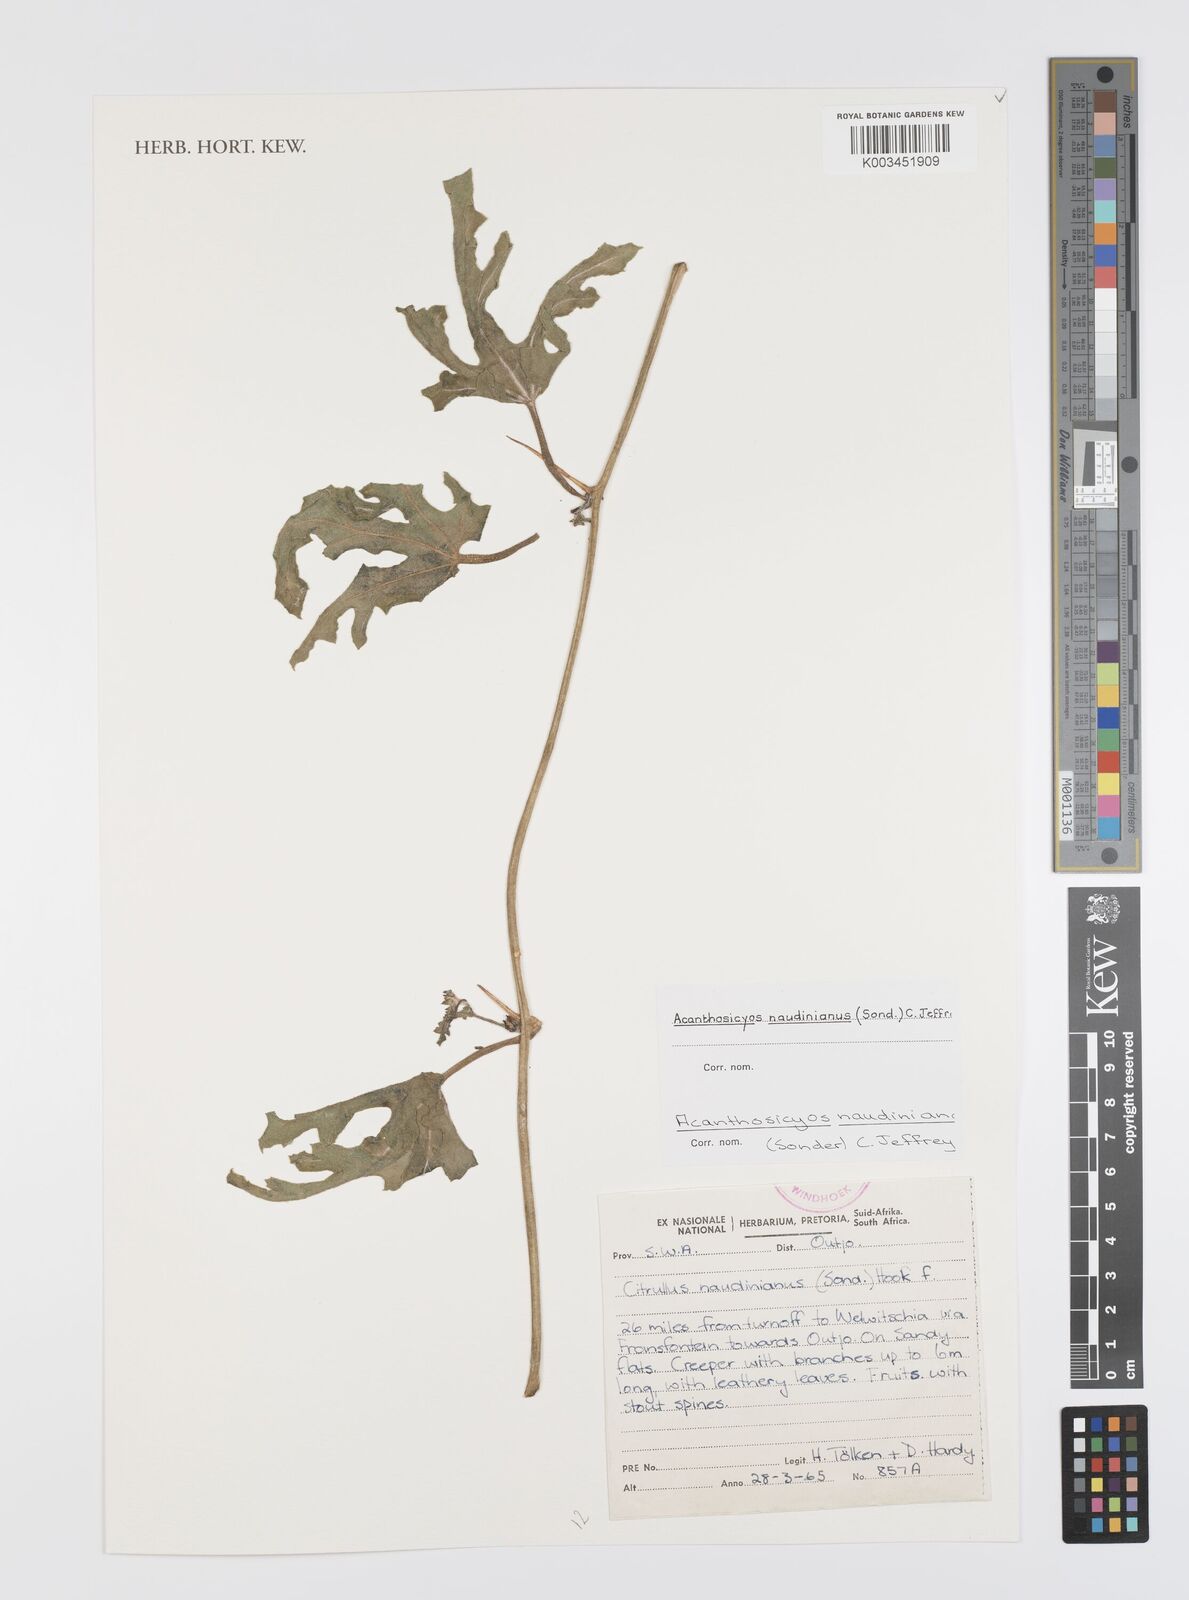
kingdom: Plantae
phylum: Tracheophyta
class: Magnoliopsida
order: Cucurbitales
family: Cucurbitaceae
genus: Citrullus
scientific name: Citrullus naudinianus
